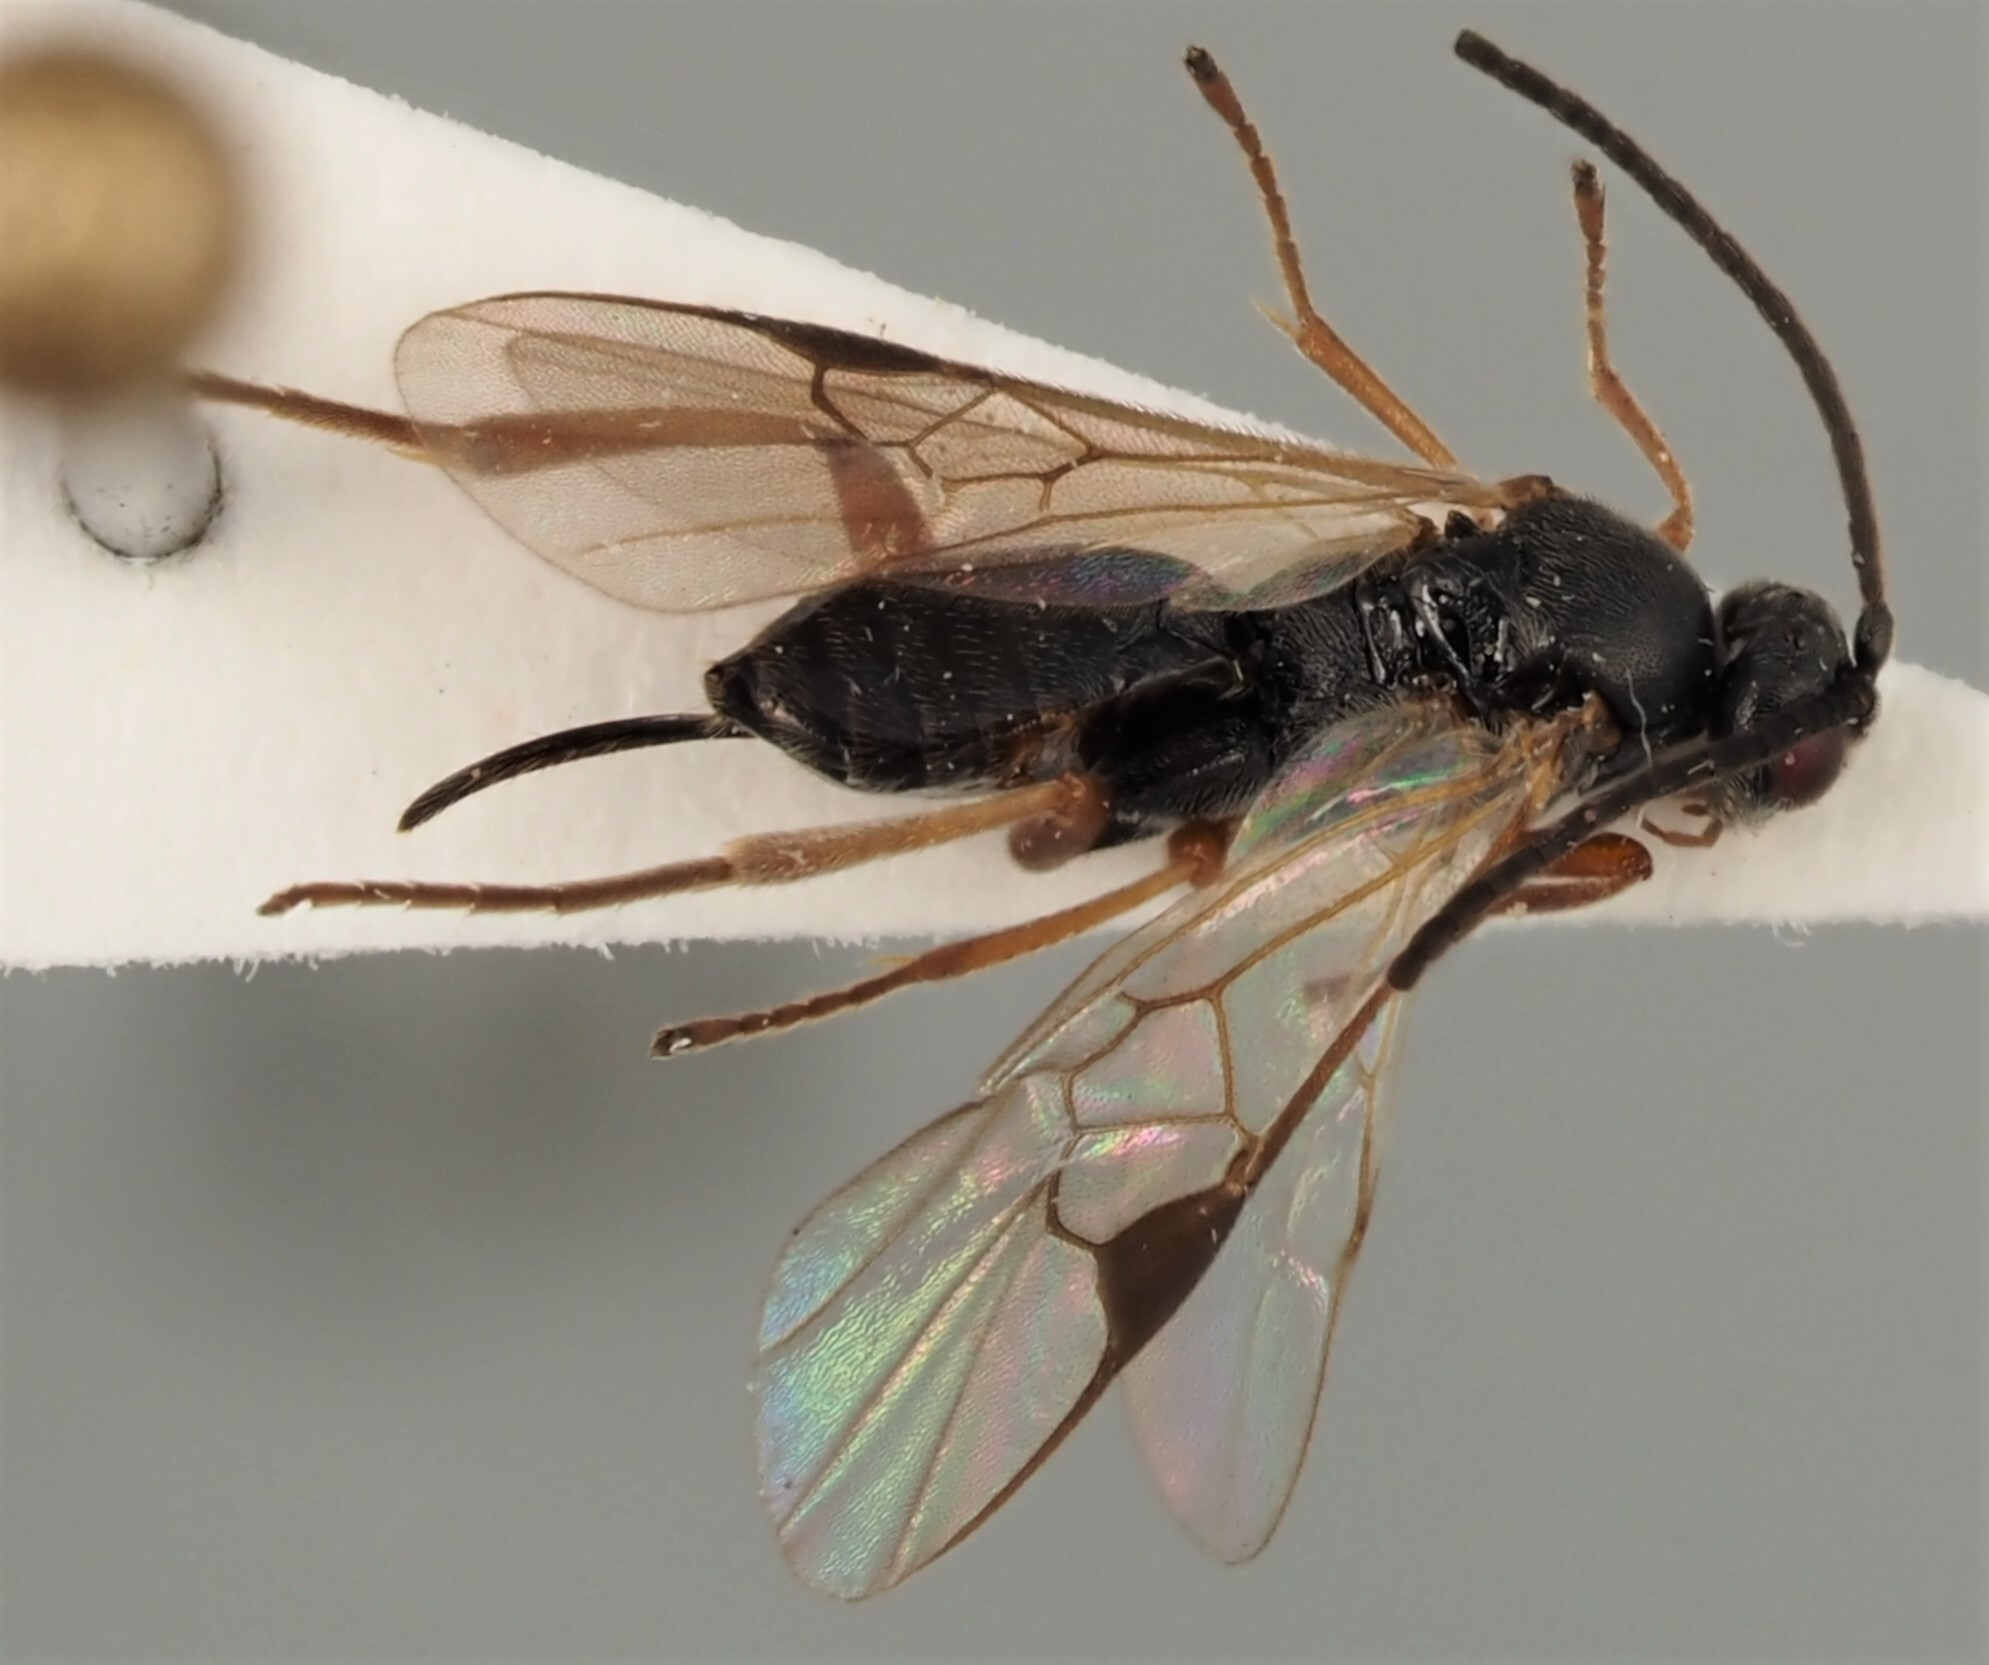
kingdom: Animalia
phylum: Arthropoda
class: Insecta
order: Hymenoptera
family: Braconidae
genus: Sathon
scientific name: Sathon falcatus
